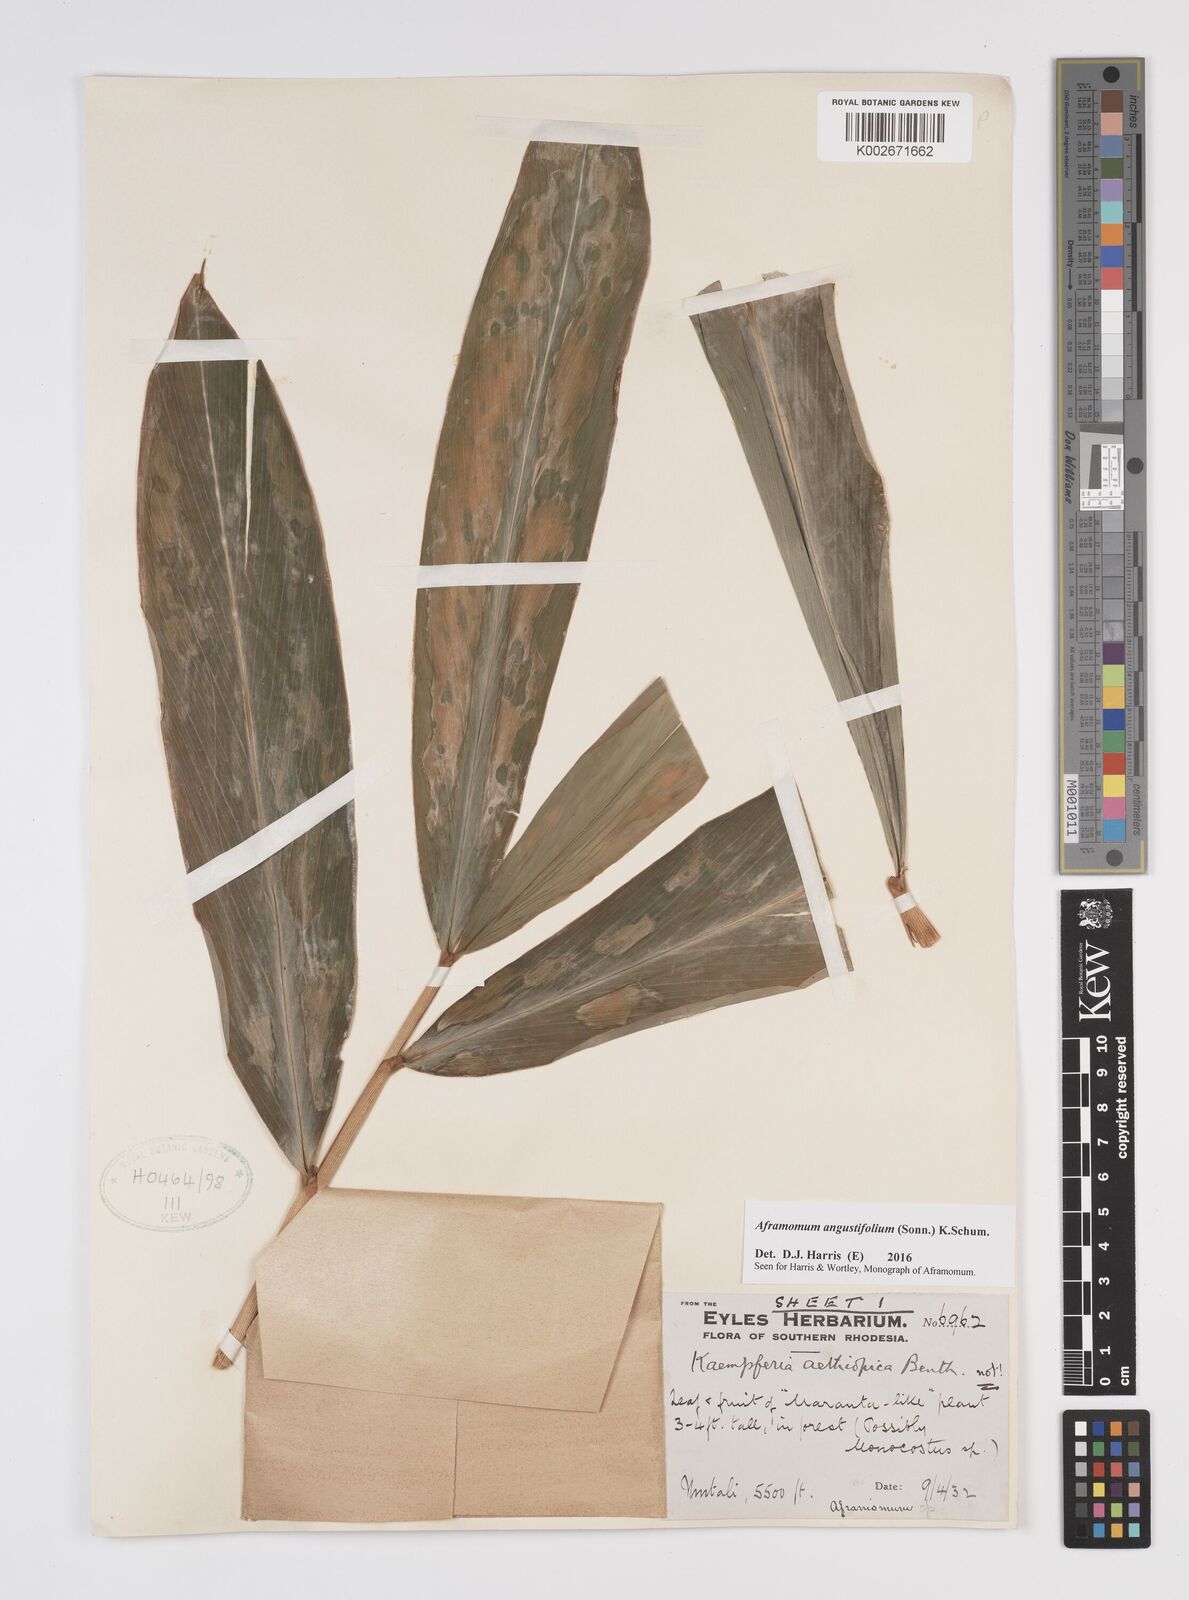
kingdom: Plantae
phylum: Tracheophyta
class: Liliopsida
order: Zingiberales
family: Zingiberaceae
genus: Aframomum
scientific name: Aframomum
